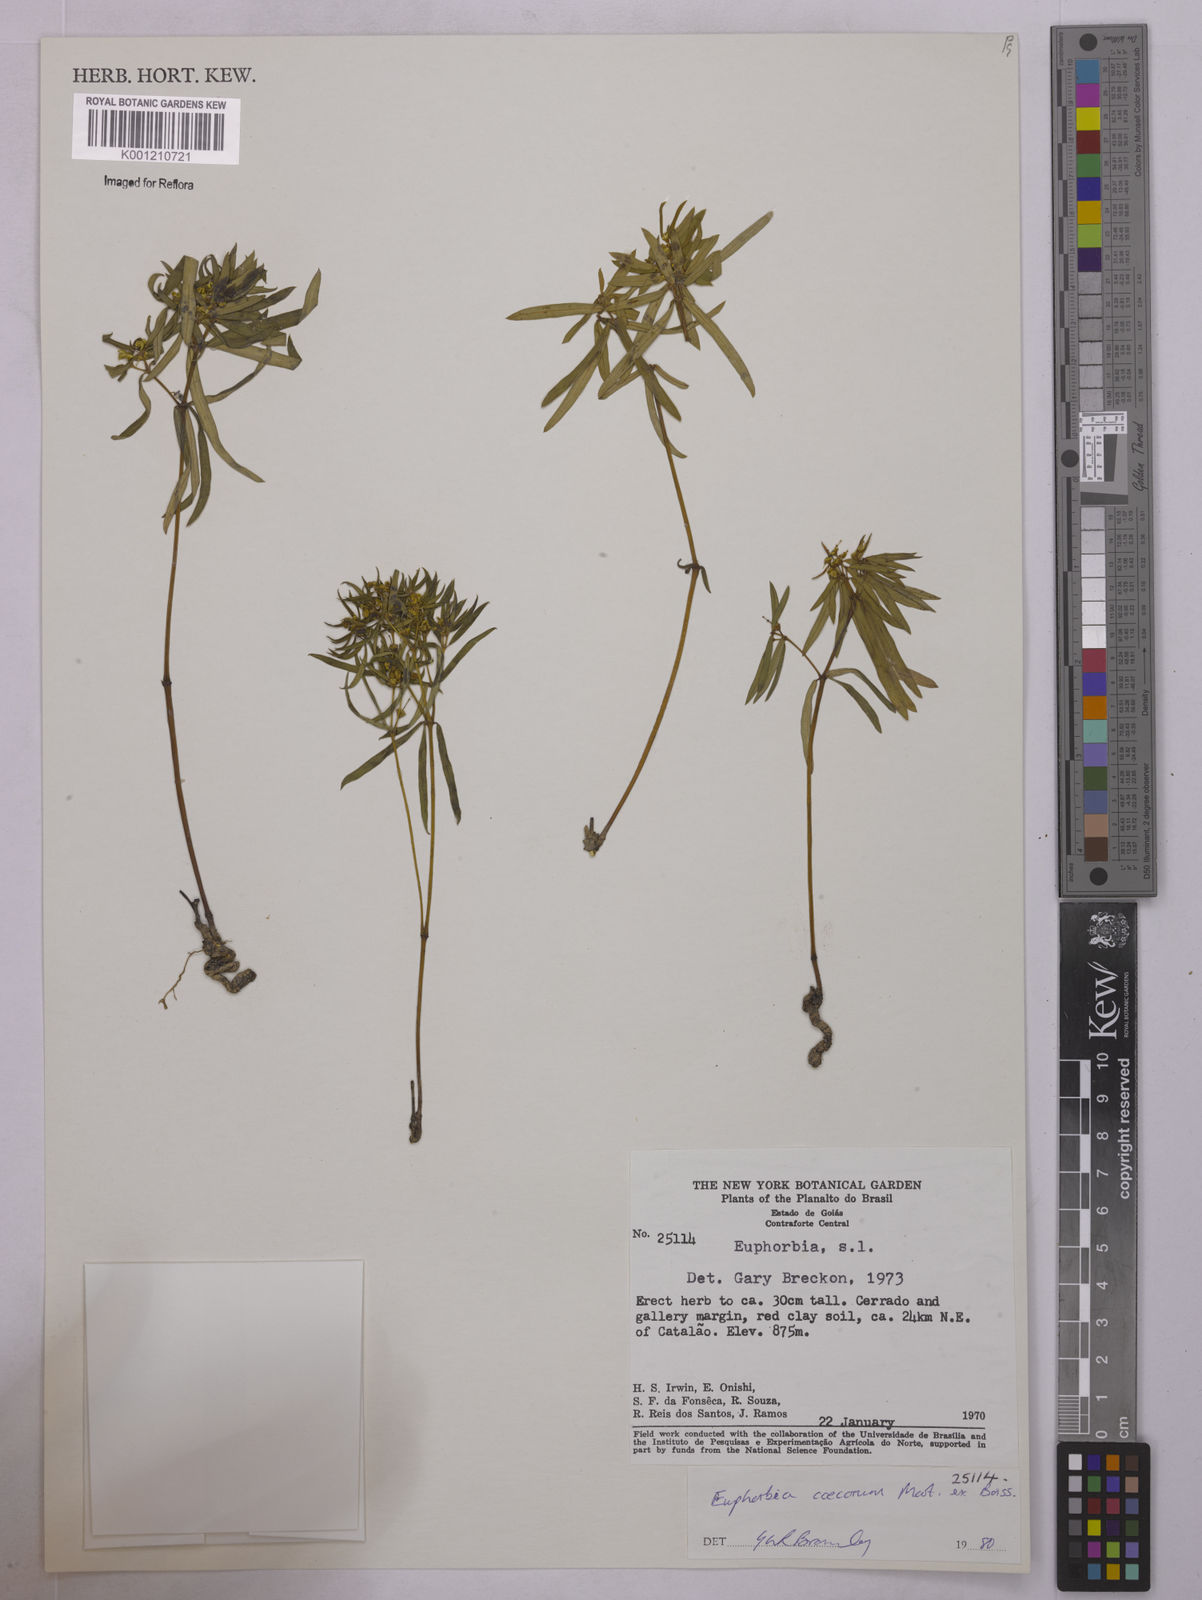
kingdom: Plantae
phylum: Tracheophyta
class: Magnoliopsida
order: Malpighiales
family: Euphorbiaceae
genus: Euphorbia
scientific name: Euphorbia potentilloides
